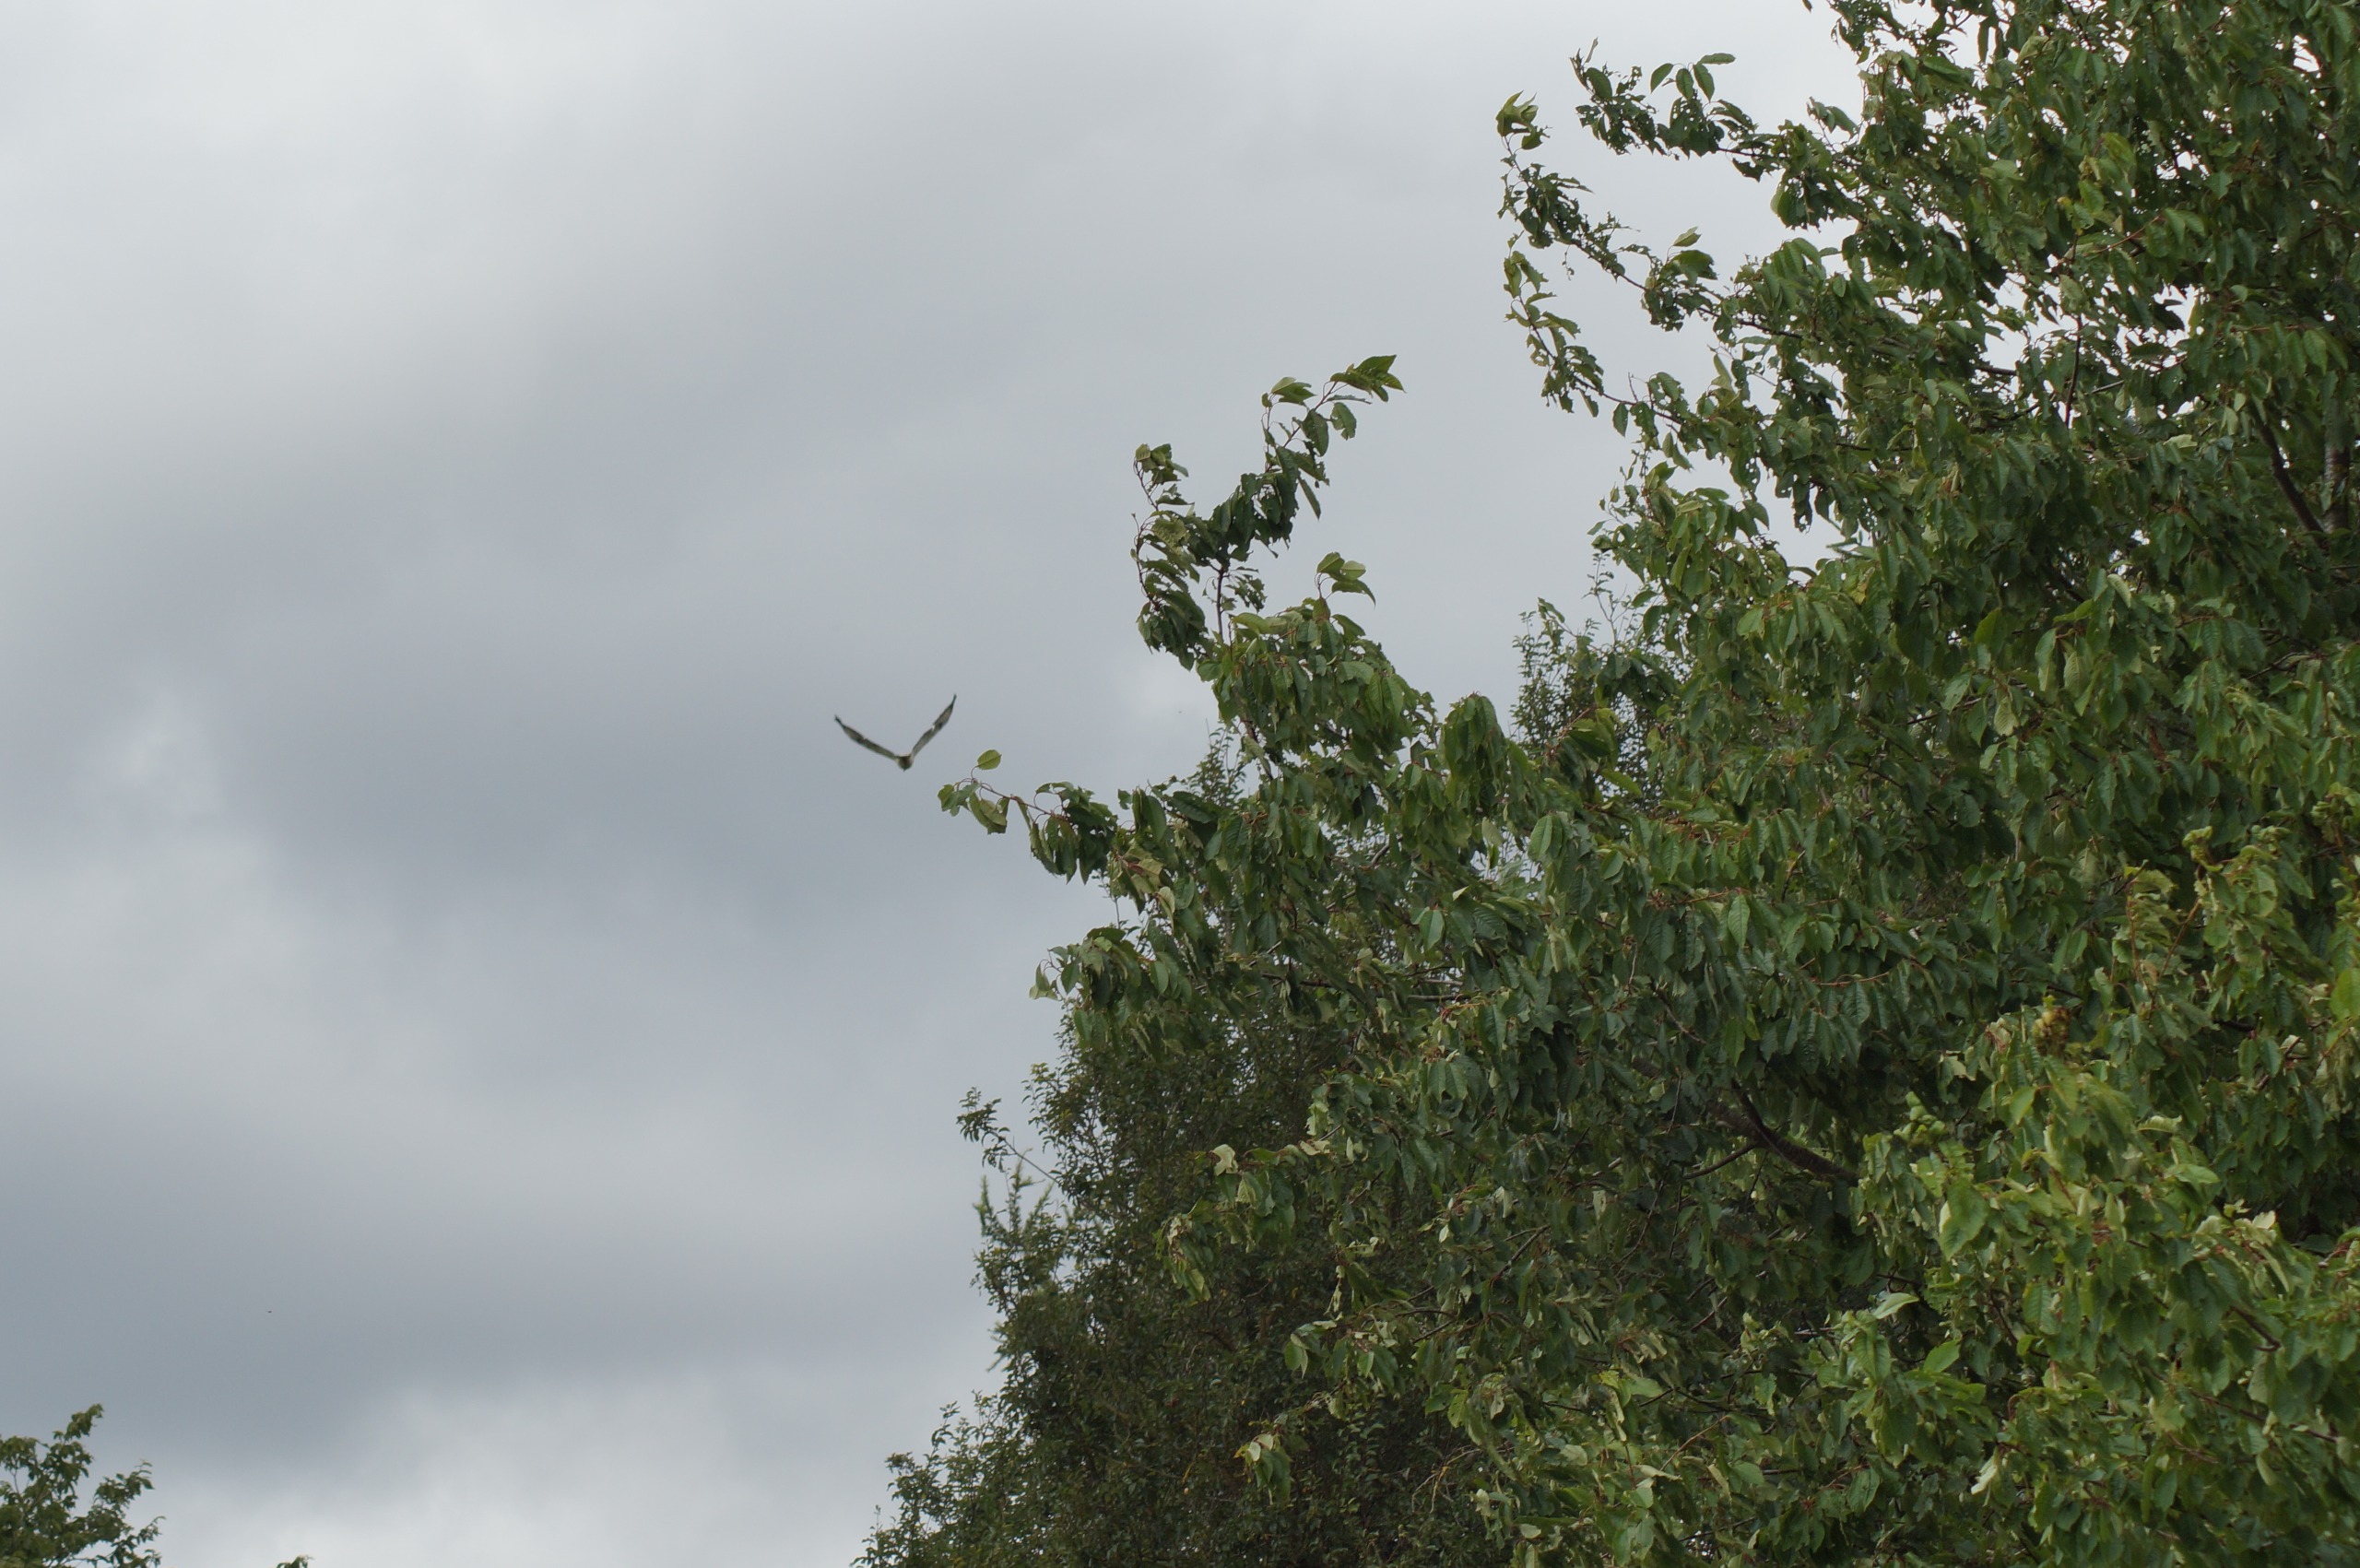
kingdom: Animalia
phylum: Chordata
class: Aves
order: Accipitriformes
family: Accipitridae
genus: Buteo
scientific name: Buteo buteo
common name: Musvåge
